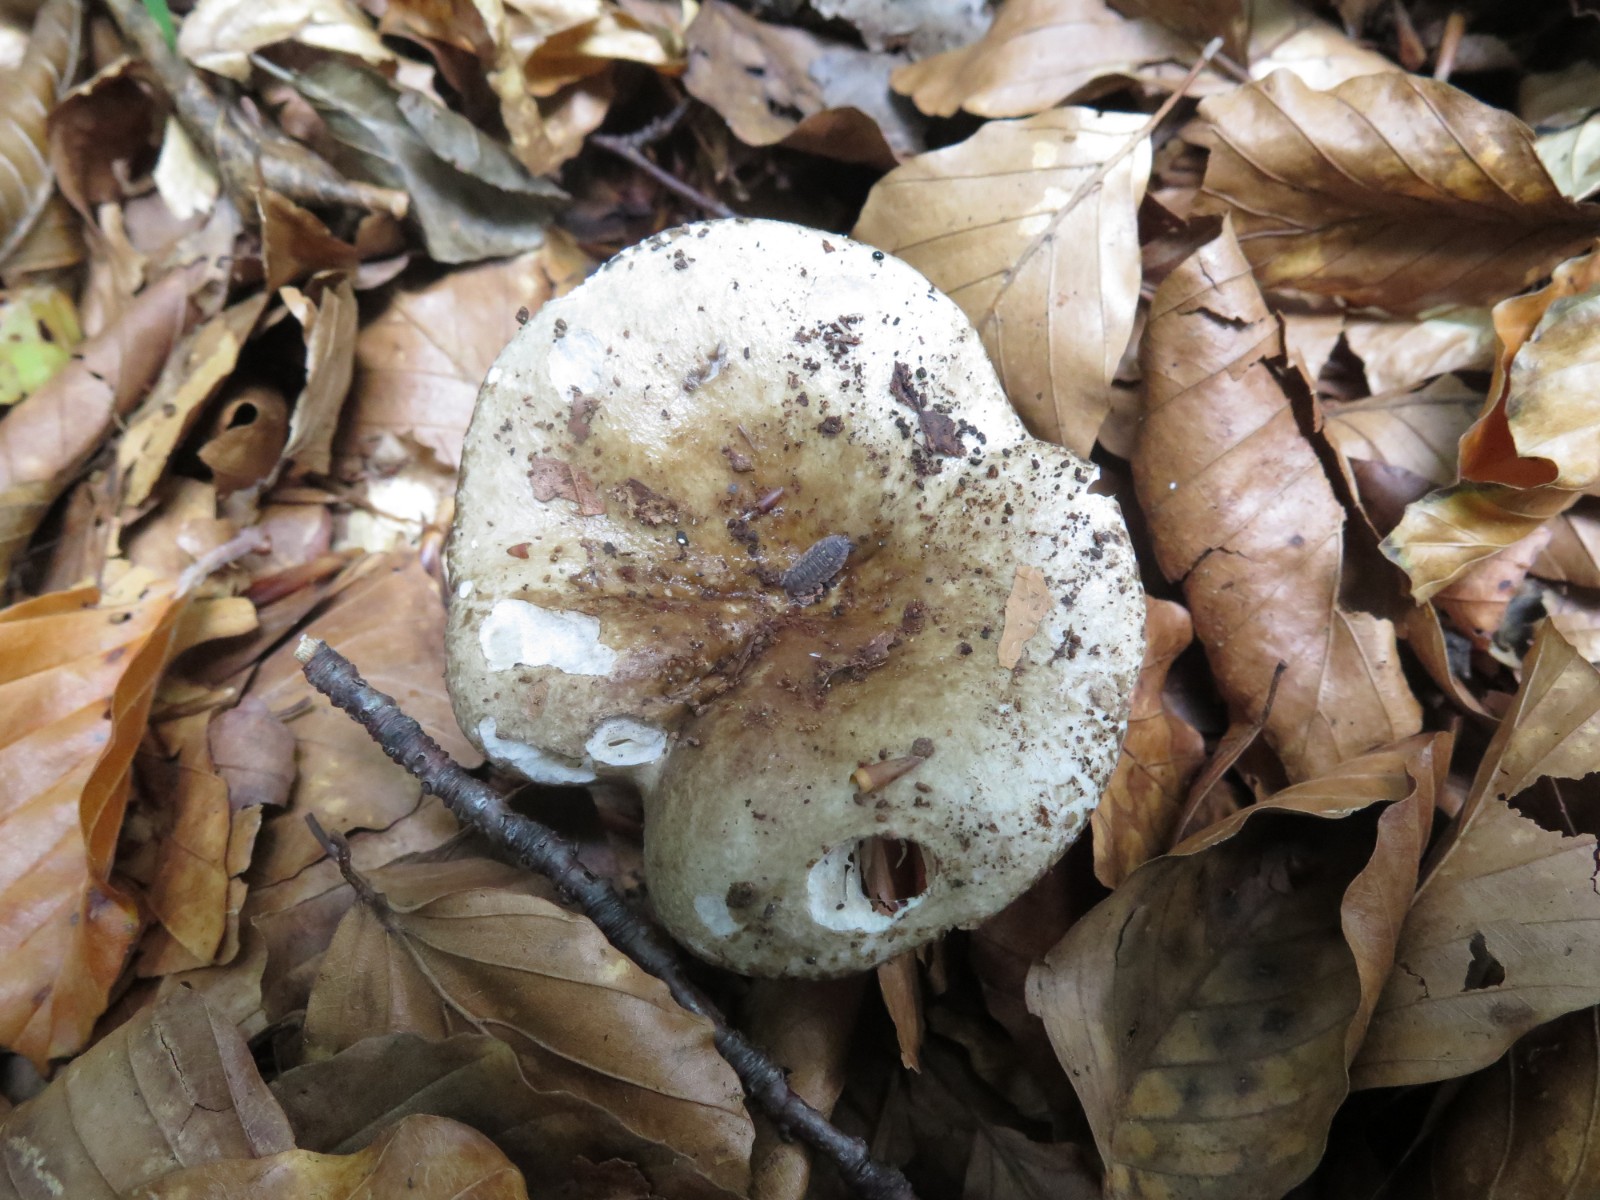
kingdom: Fungi
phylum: Basidiomycota
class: Agaricomycetes
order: Russulales
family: Russulaceae
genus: Russula
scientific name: Russula acrifolia
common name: skarpbladet skørhat
